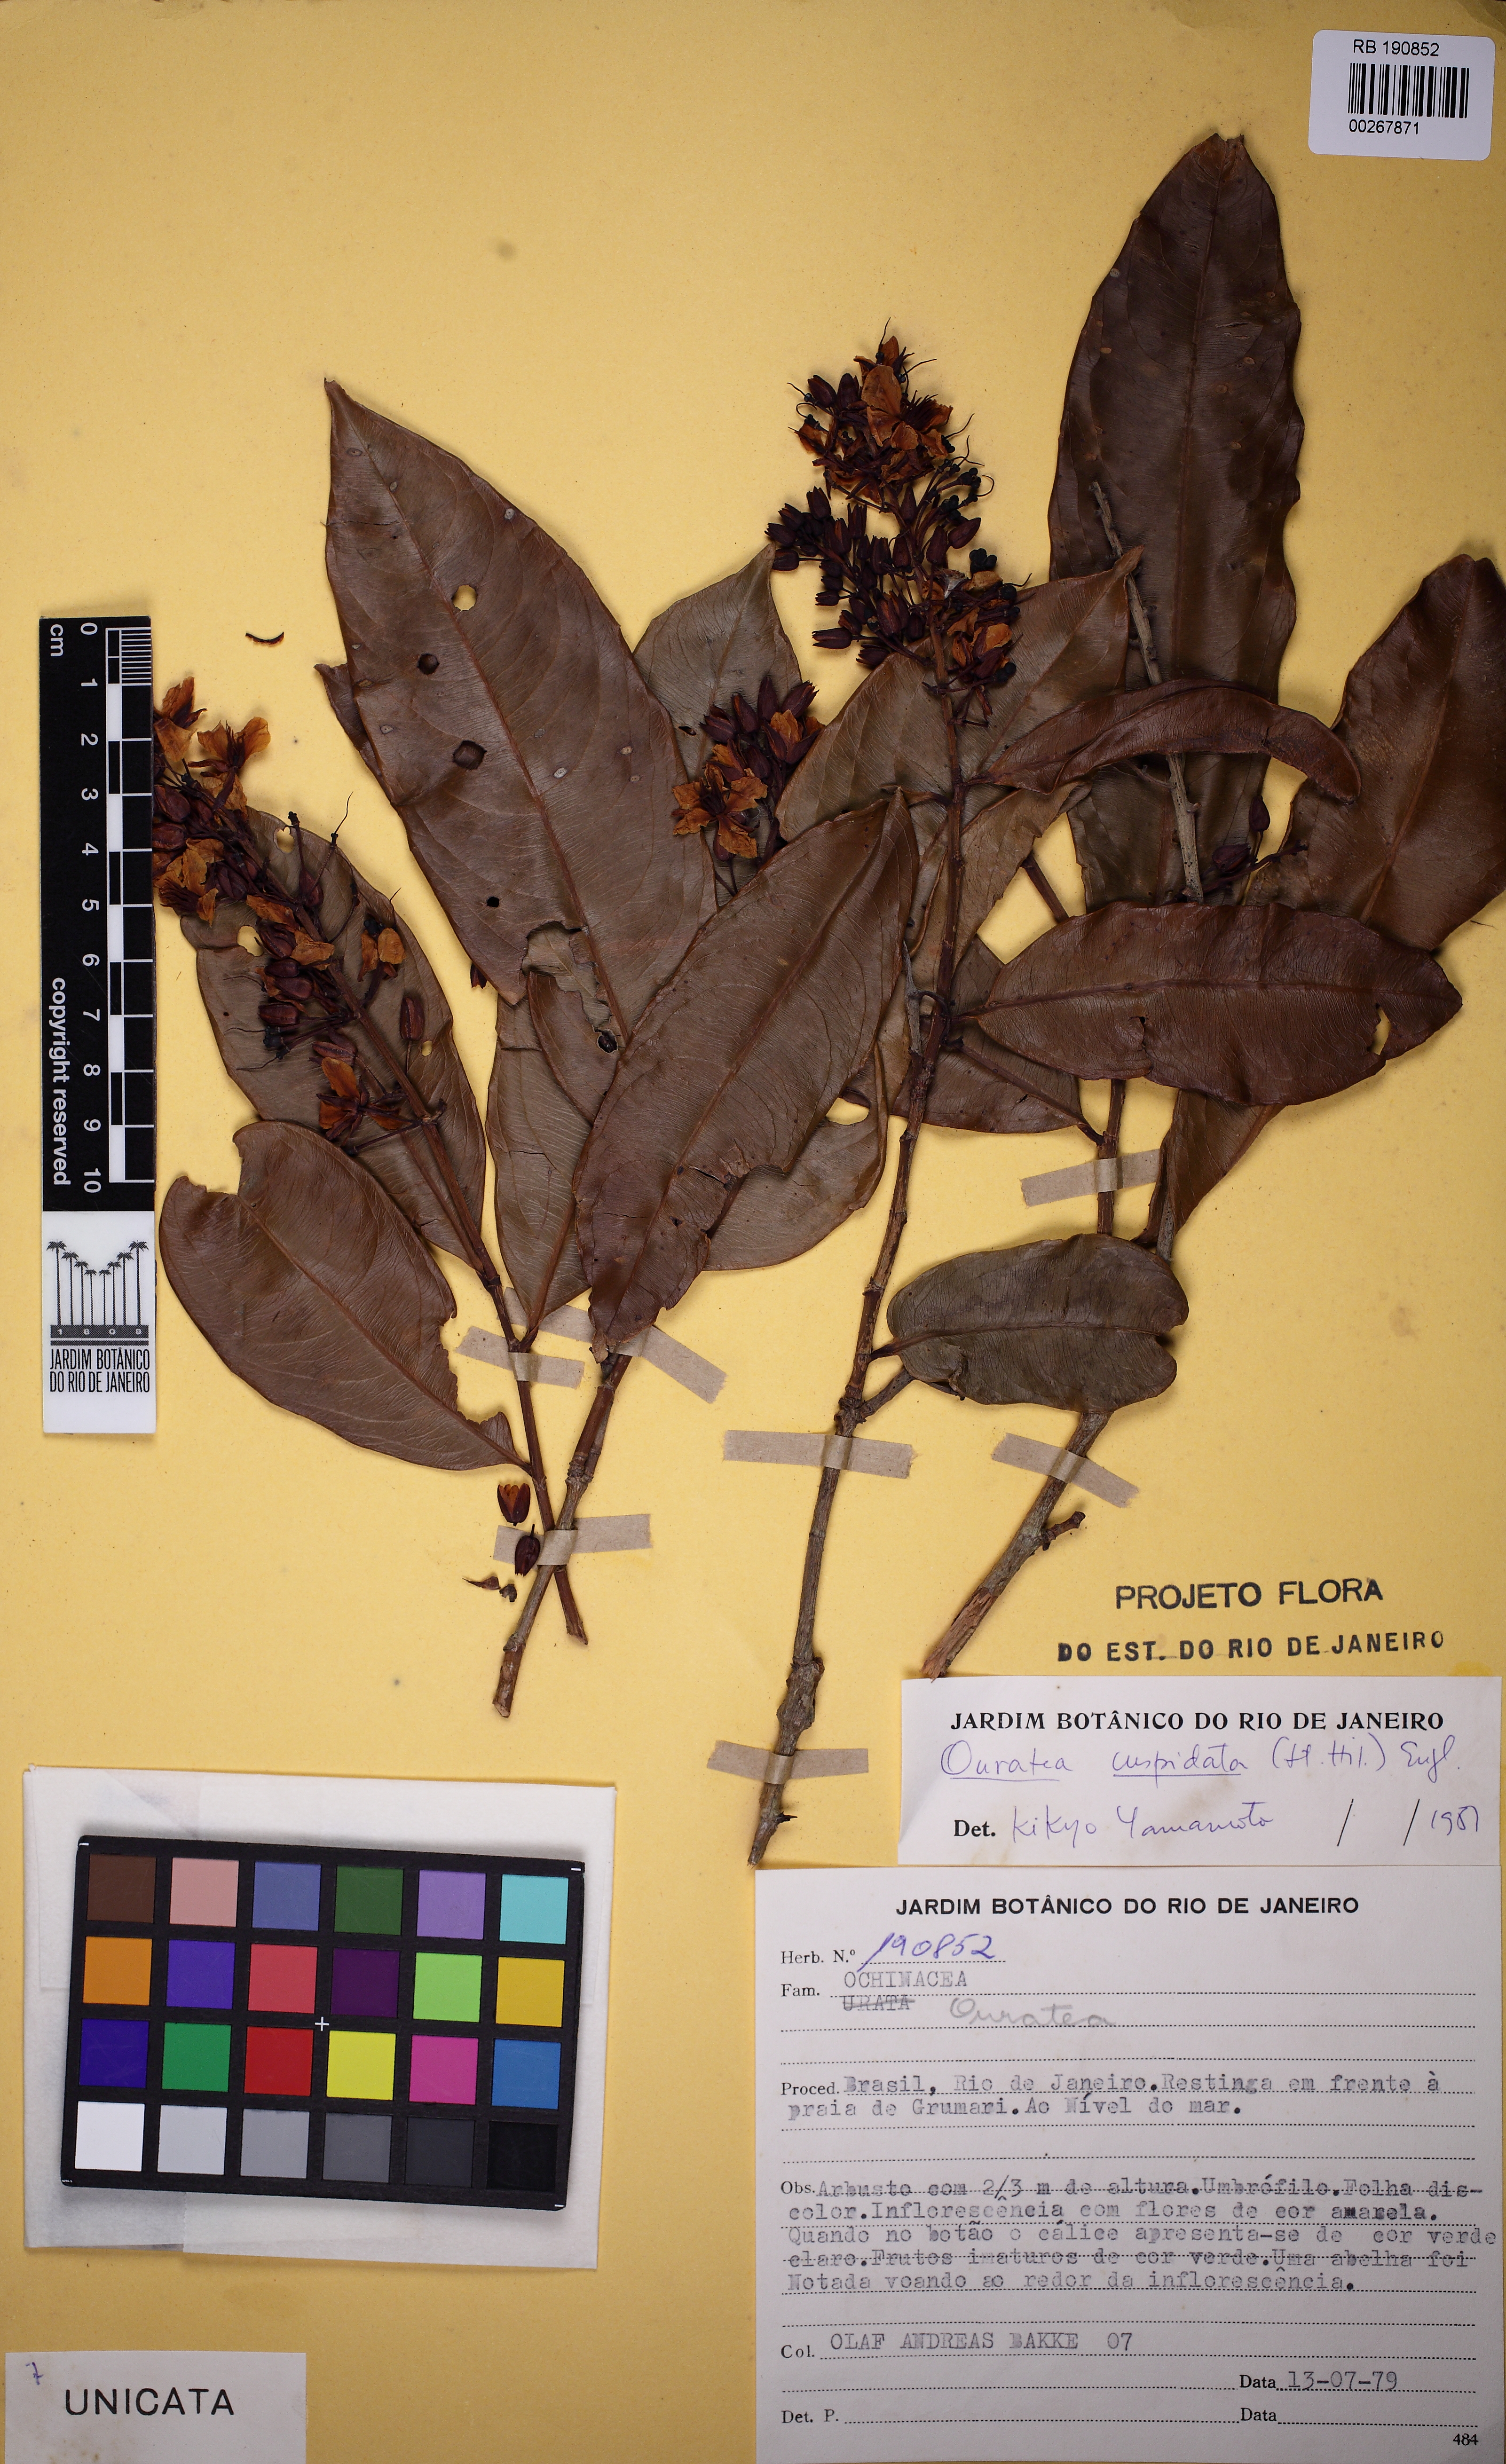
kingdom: Plantae
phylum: Tracheophyta
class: Magnoliopsida
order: Malpighiales
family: Ochnaceae
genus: Ouratea
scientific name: Ouratea cuspidata
